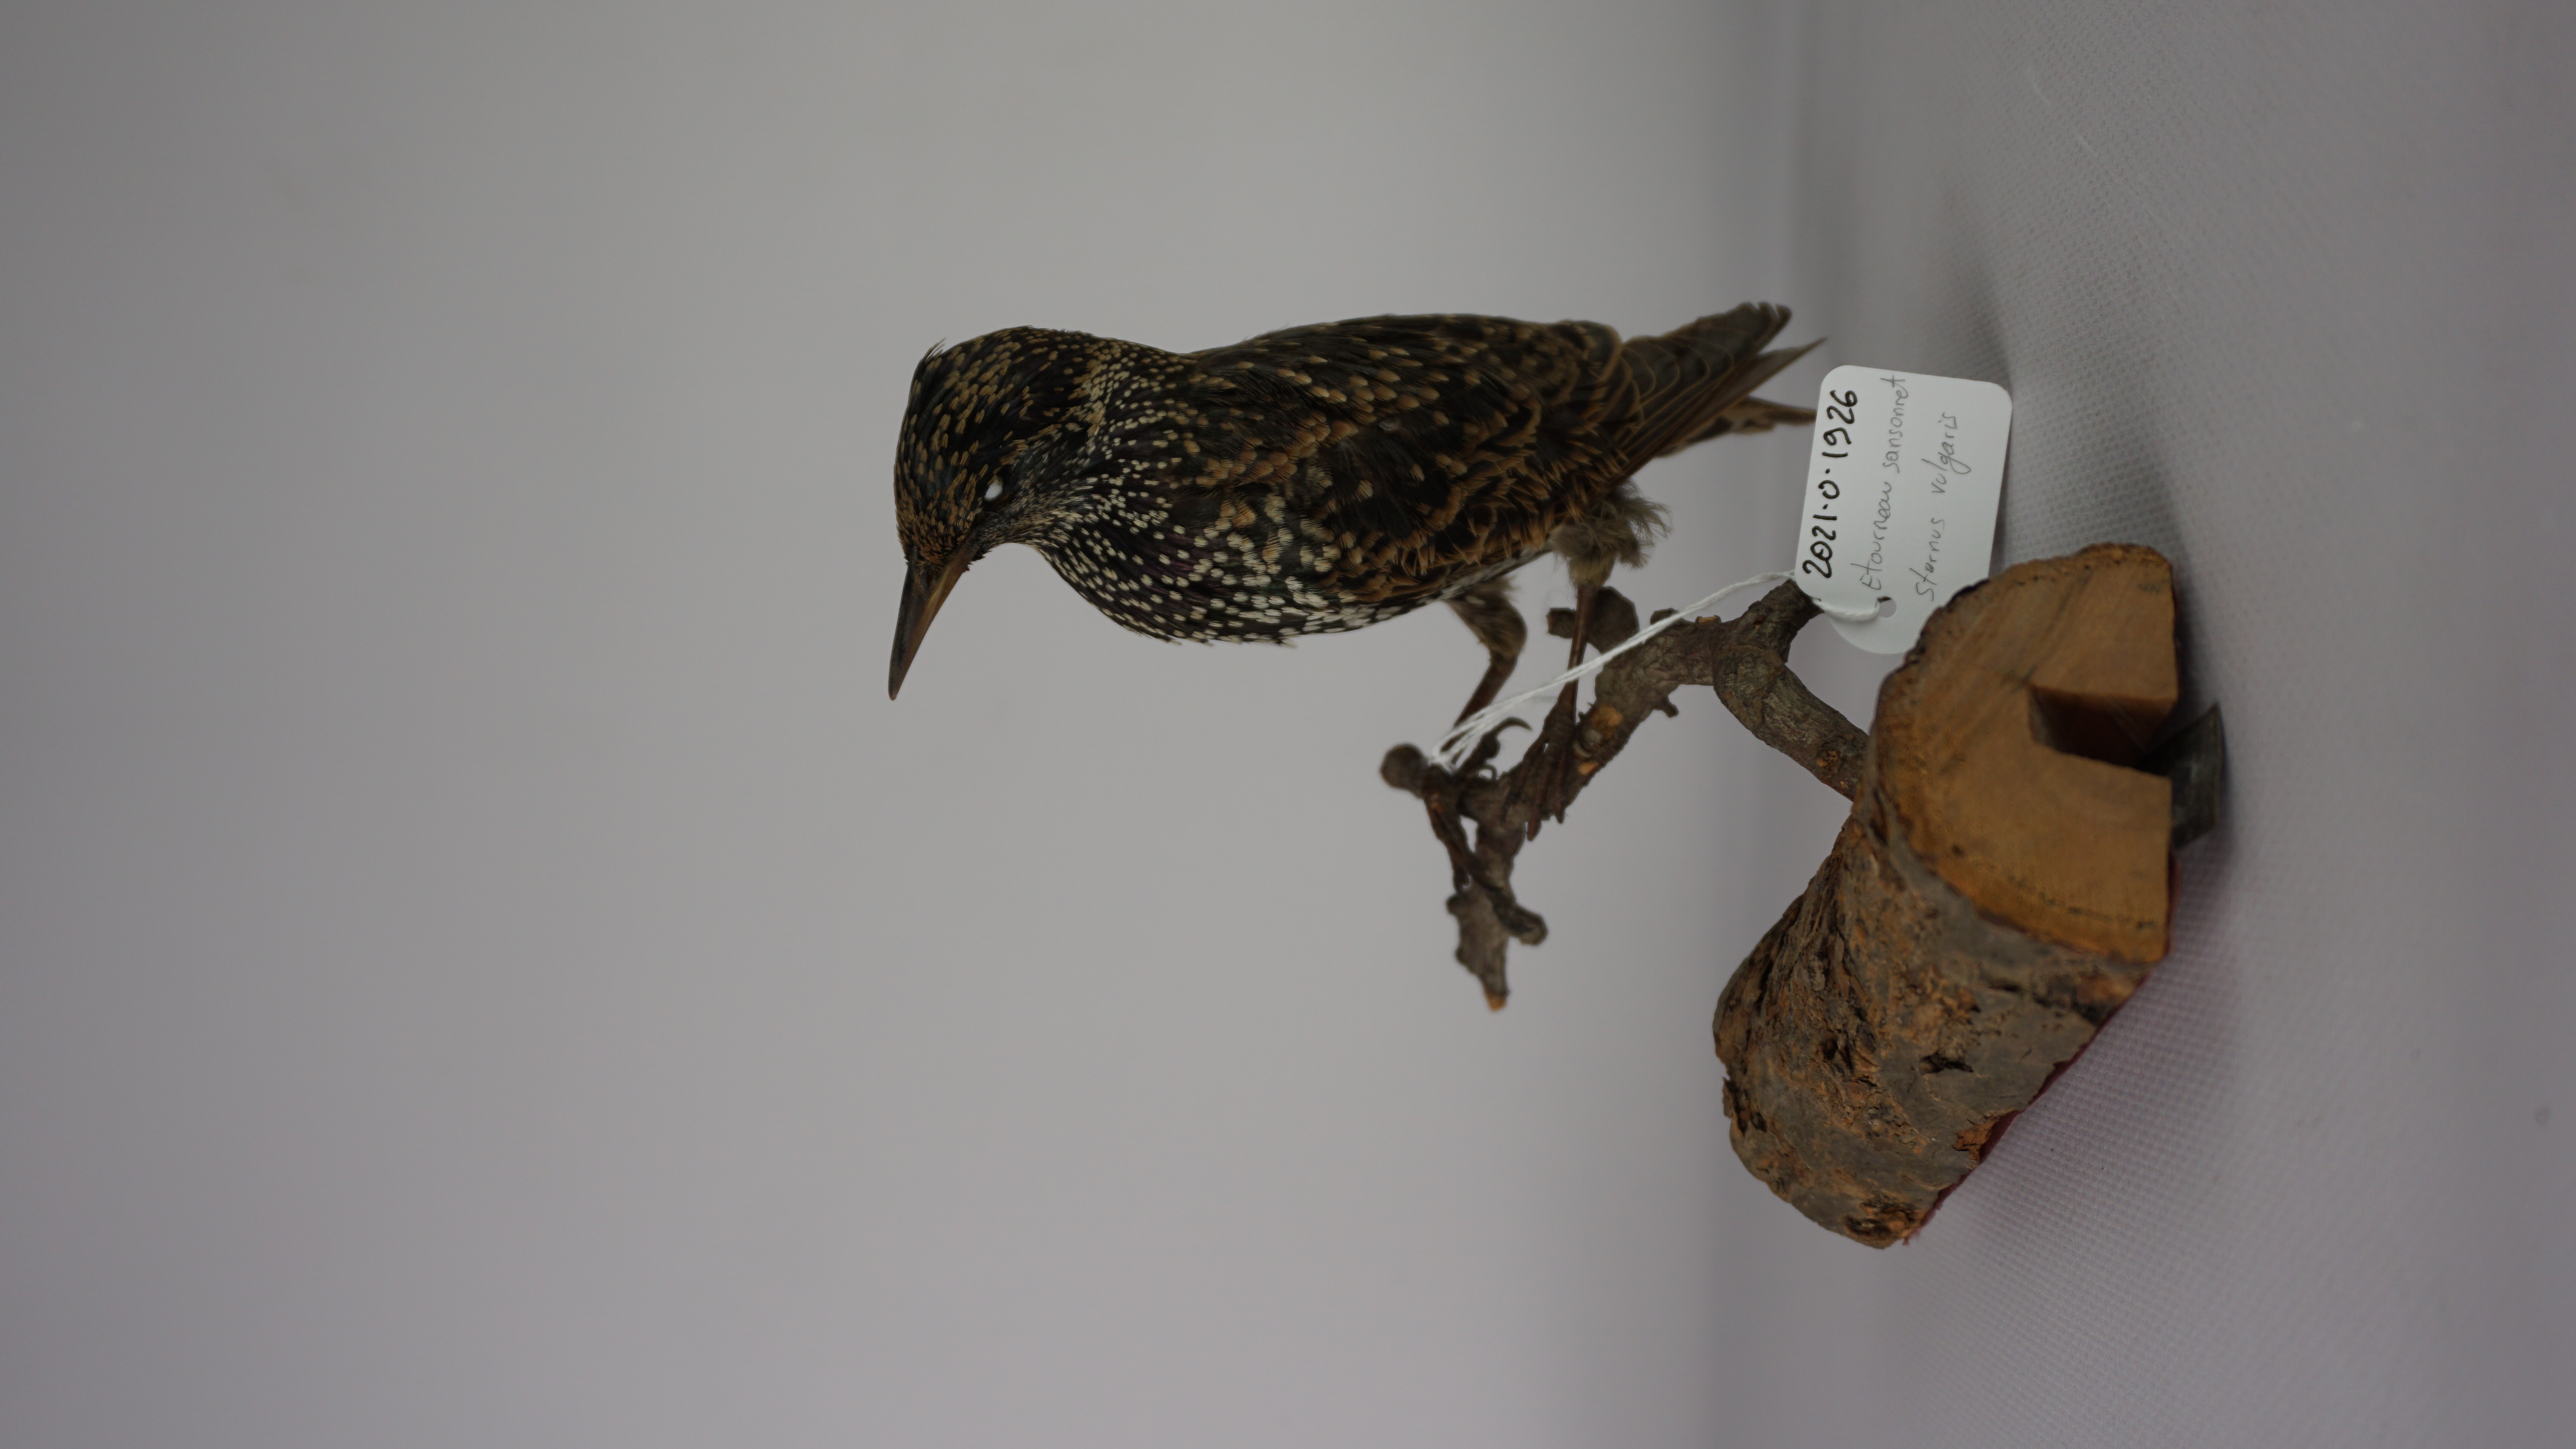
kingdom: Animalia
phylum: Chordata
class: Aves
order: Passeriformes
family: Sturnidae
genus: Sturnus
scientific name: Sturnus vulgaris
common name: Common starling
